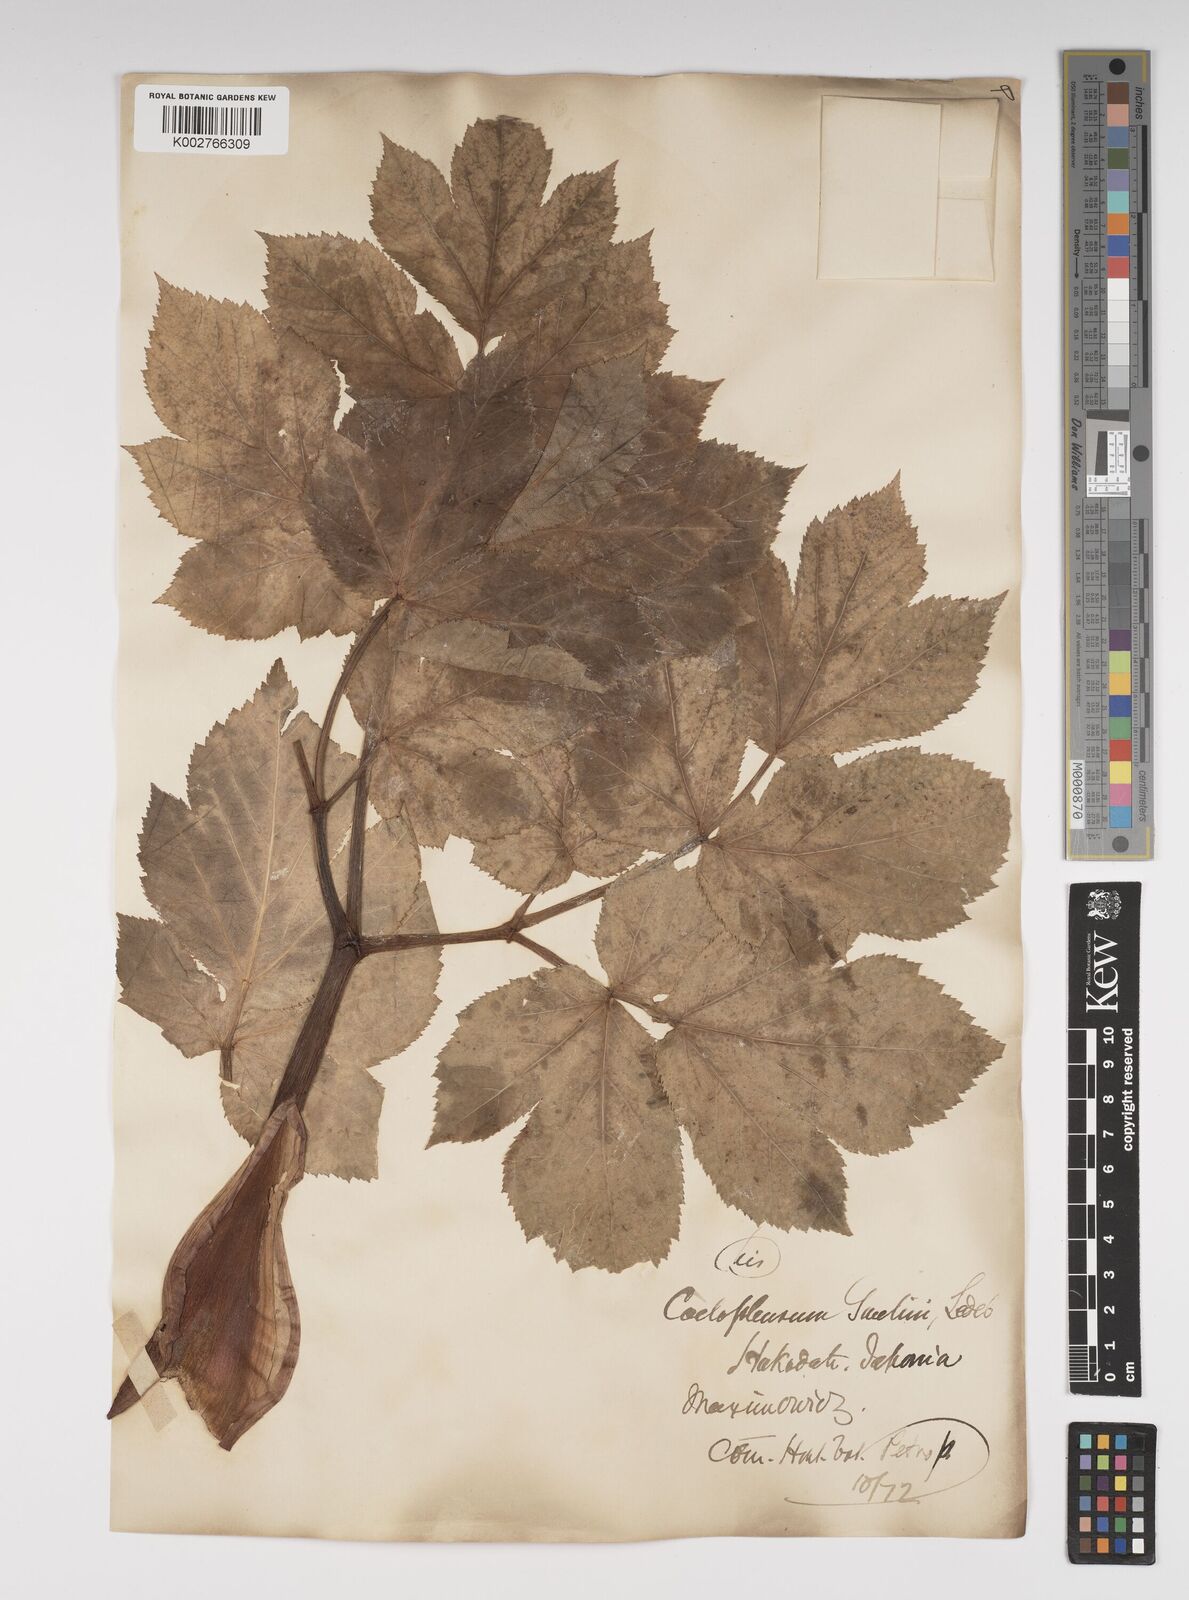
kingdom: Plantae
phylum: Tracheophyta
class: Magnoliopsida
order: Apiales
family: Apiaceae
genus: Angelica
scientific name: Angelica gmelinii
